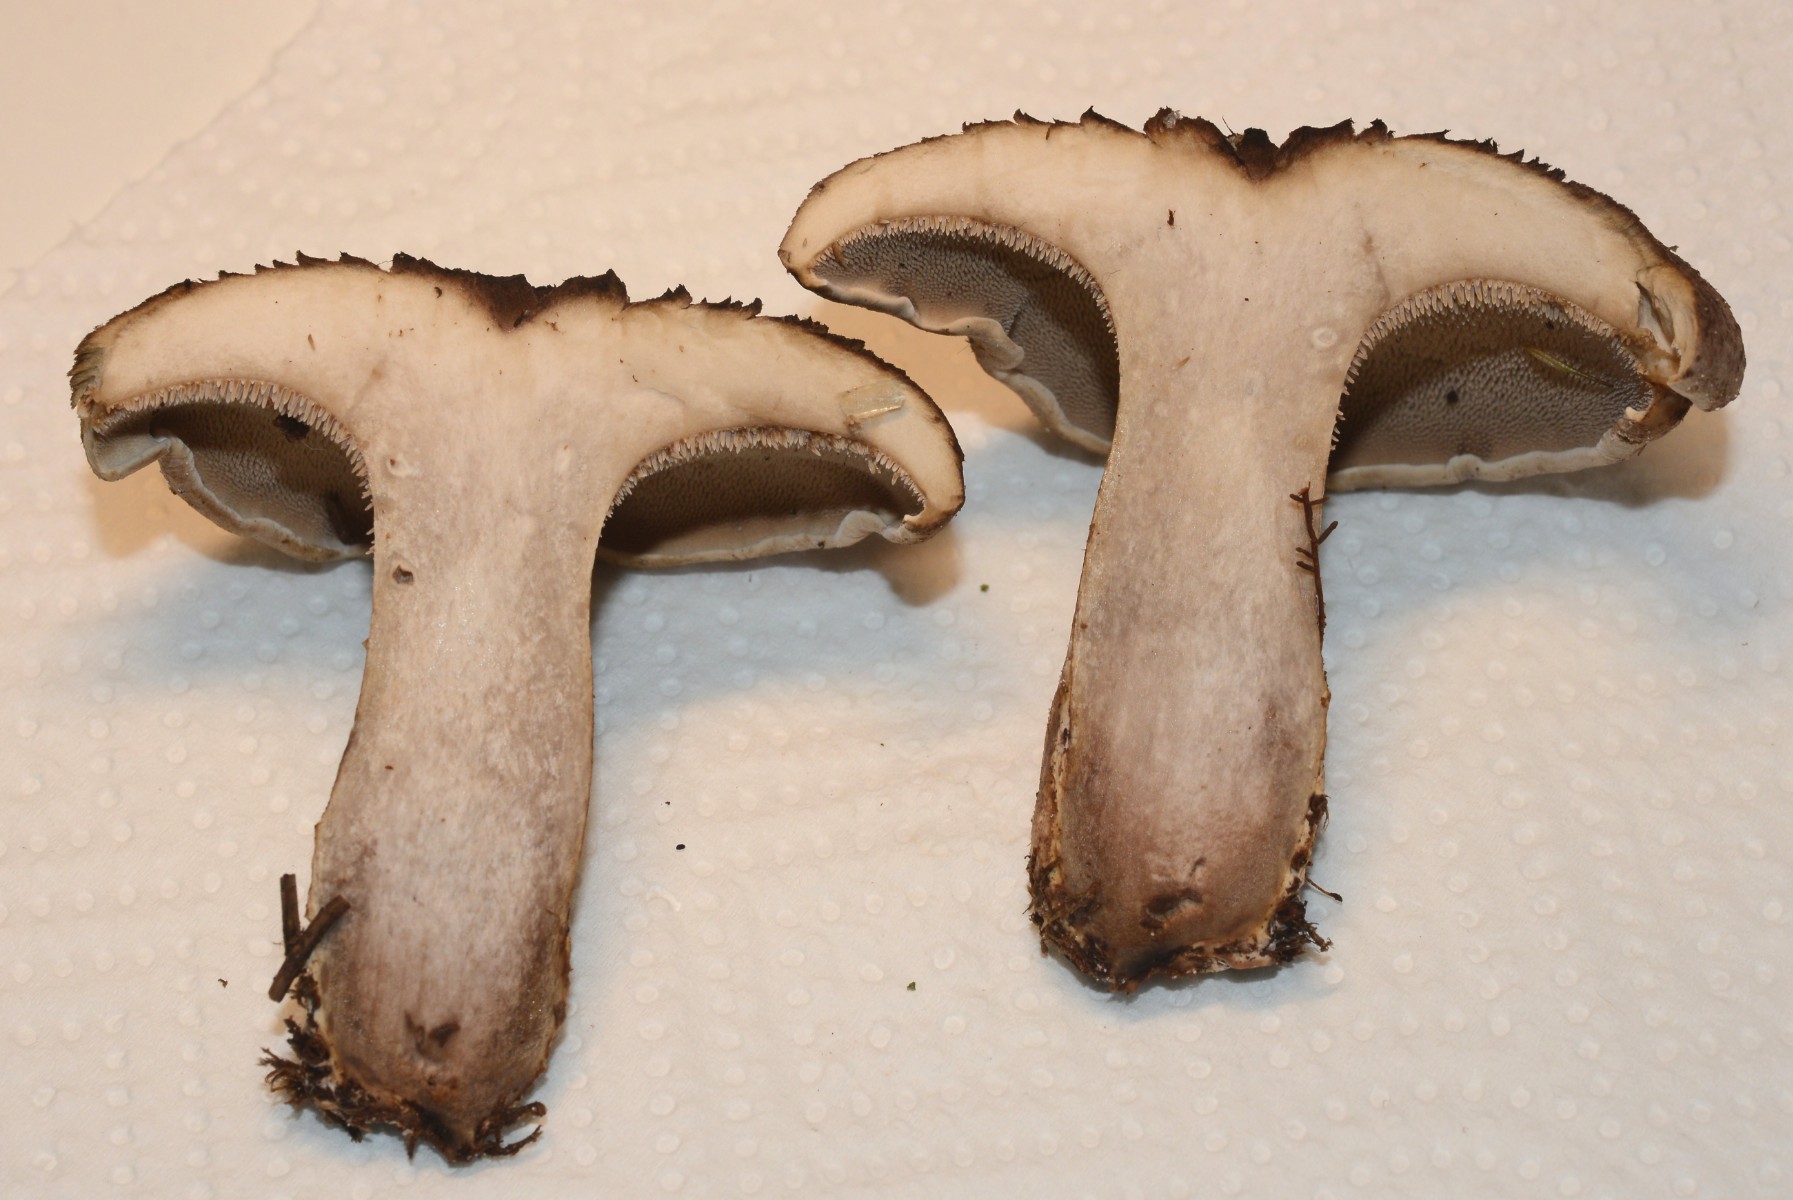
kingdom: Fungi
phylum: Basidiomycota
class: Agaricomycetes
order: Thelephorales
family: Bankeraceae
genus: Sarcodon
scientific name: Sarcodon squamosus
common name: småskællet kødpigsvamp
